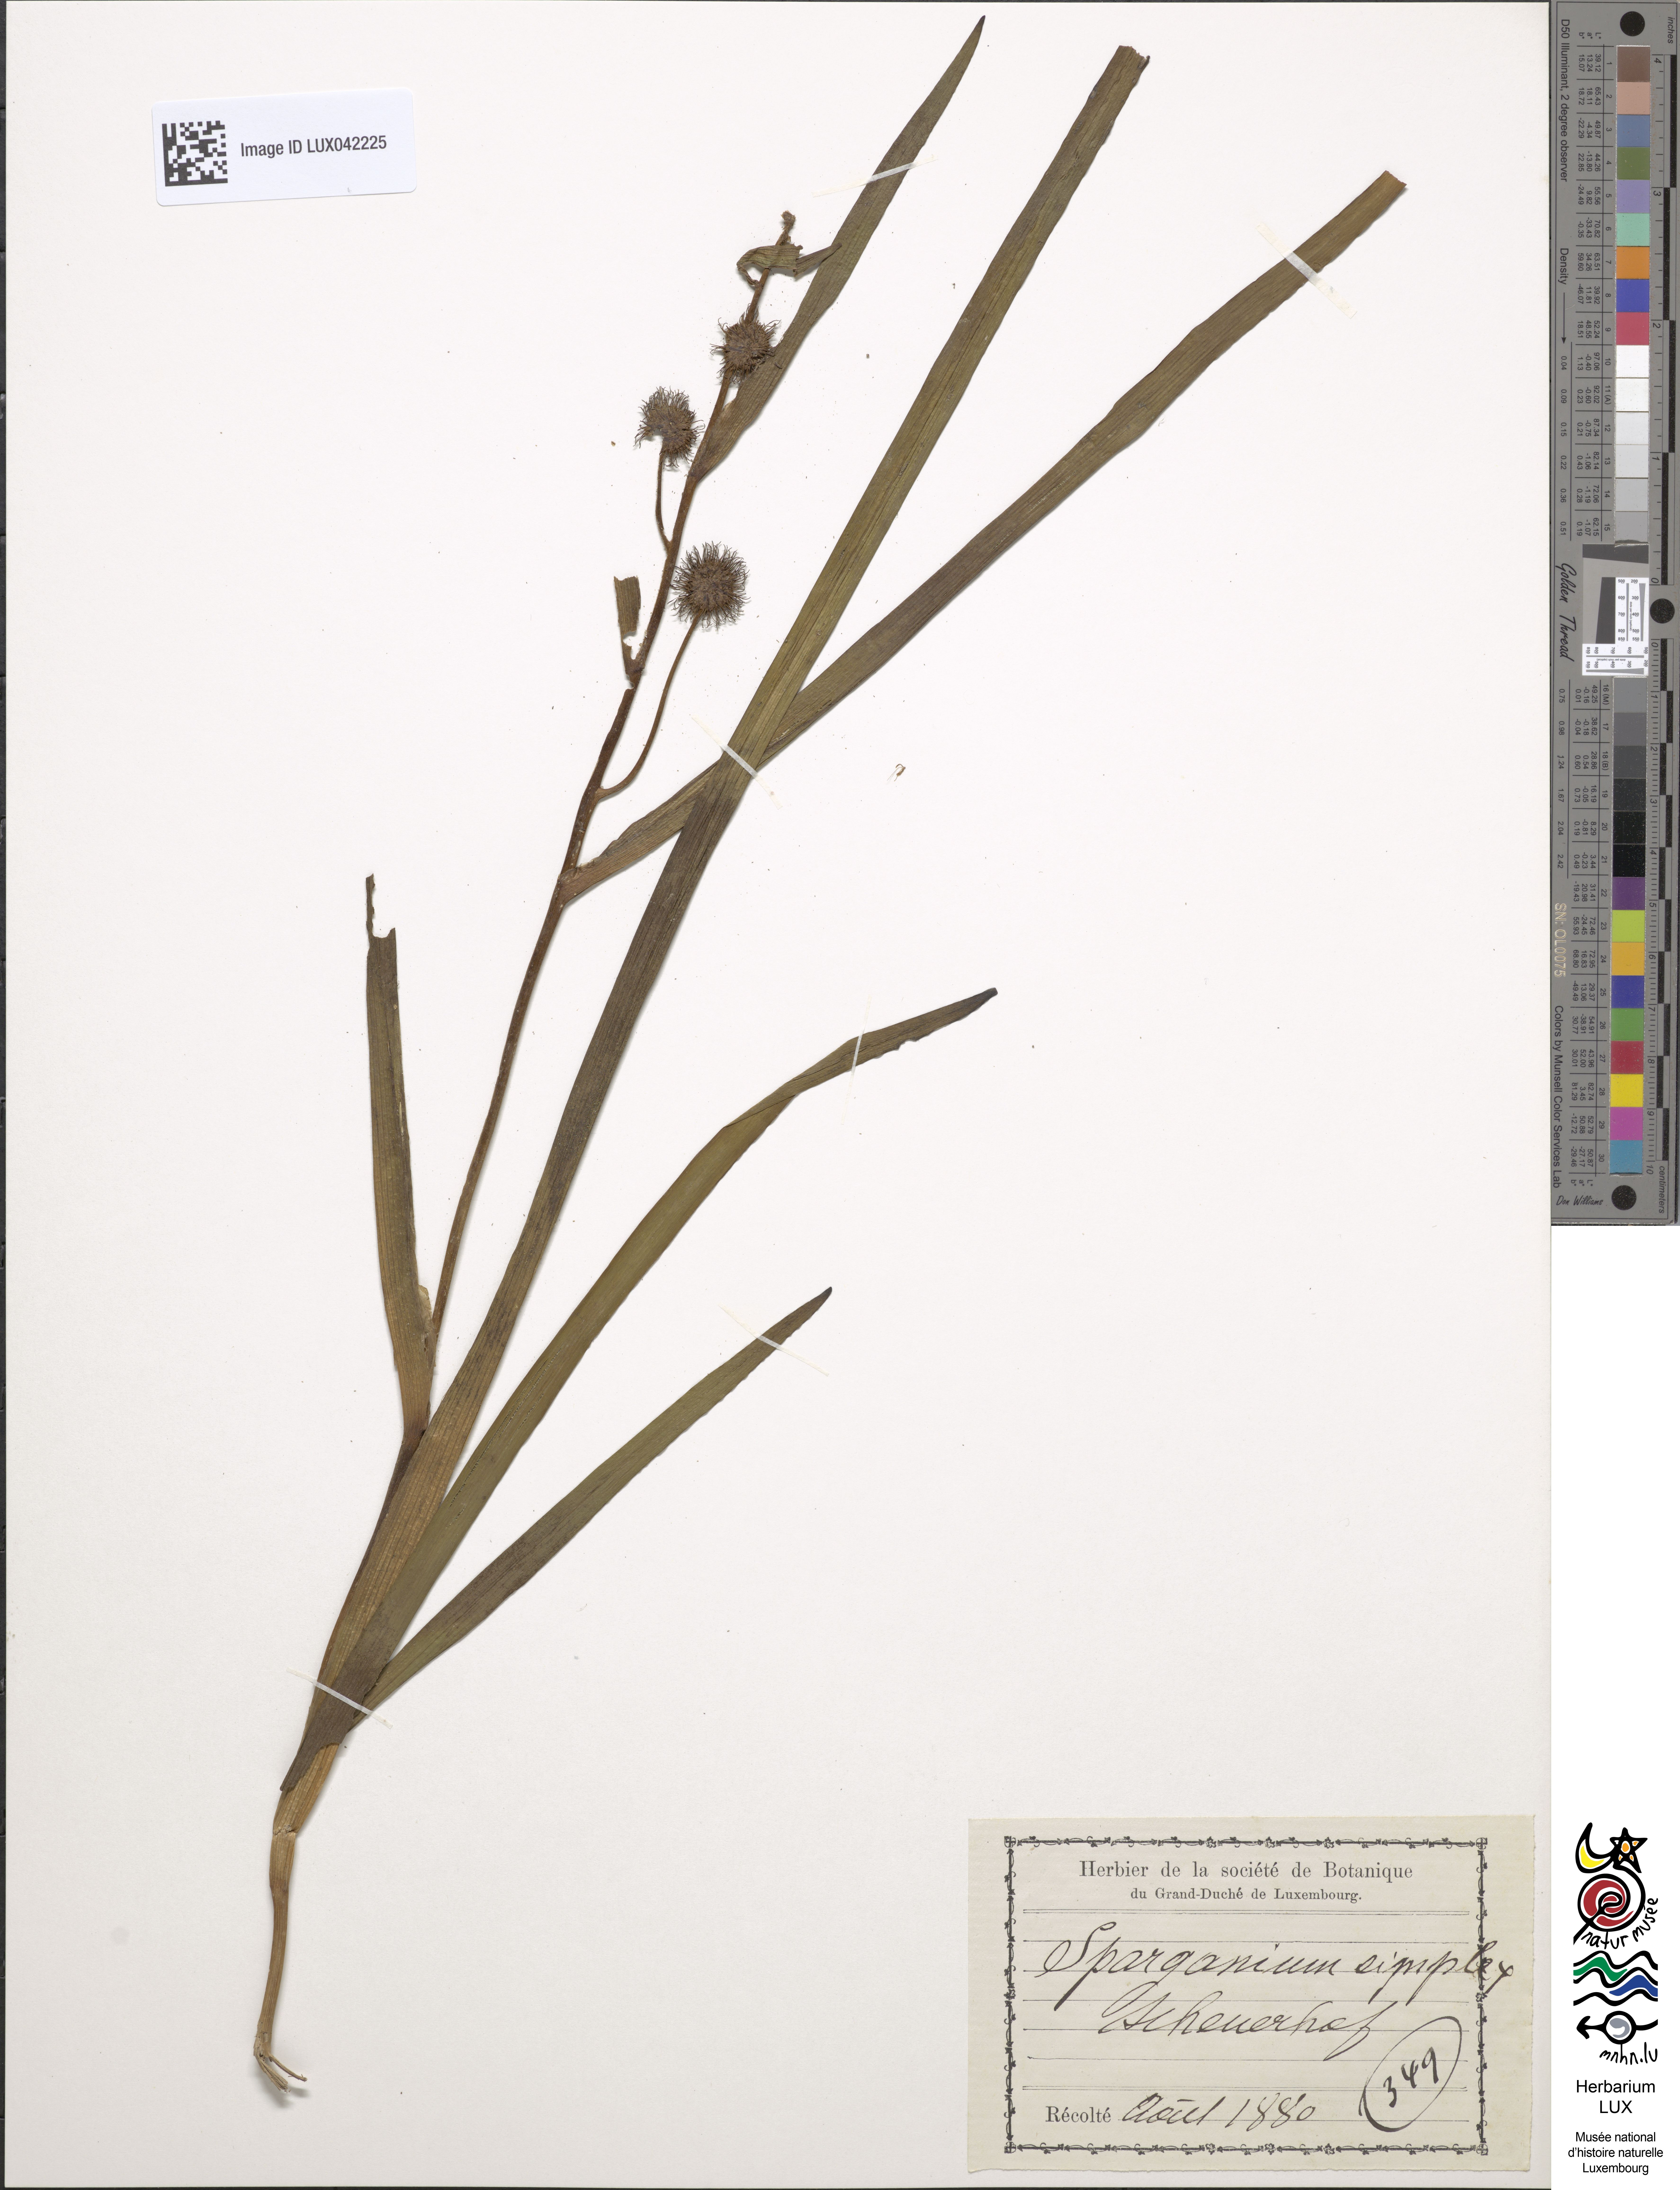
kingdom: Plantae
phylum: Tracheophyta
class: Liliopsida
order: Poales
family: Typhaceae
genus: Sparganium
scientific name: Sparganium emersum
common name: Unbranched bur-reed
